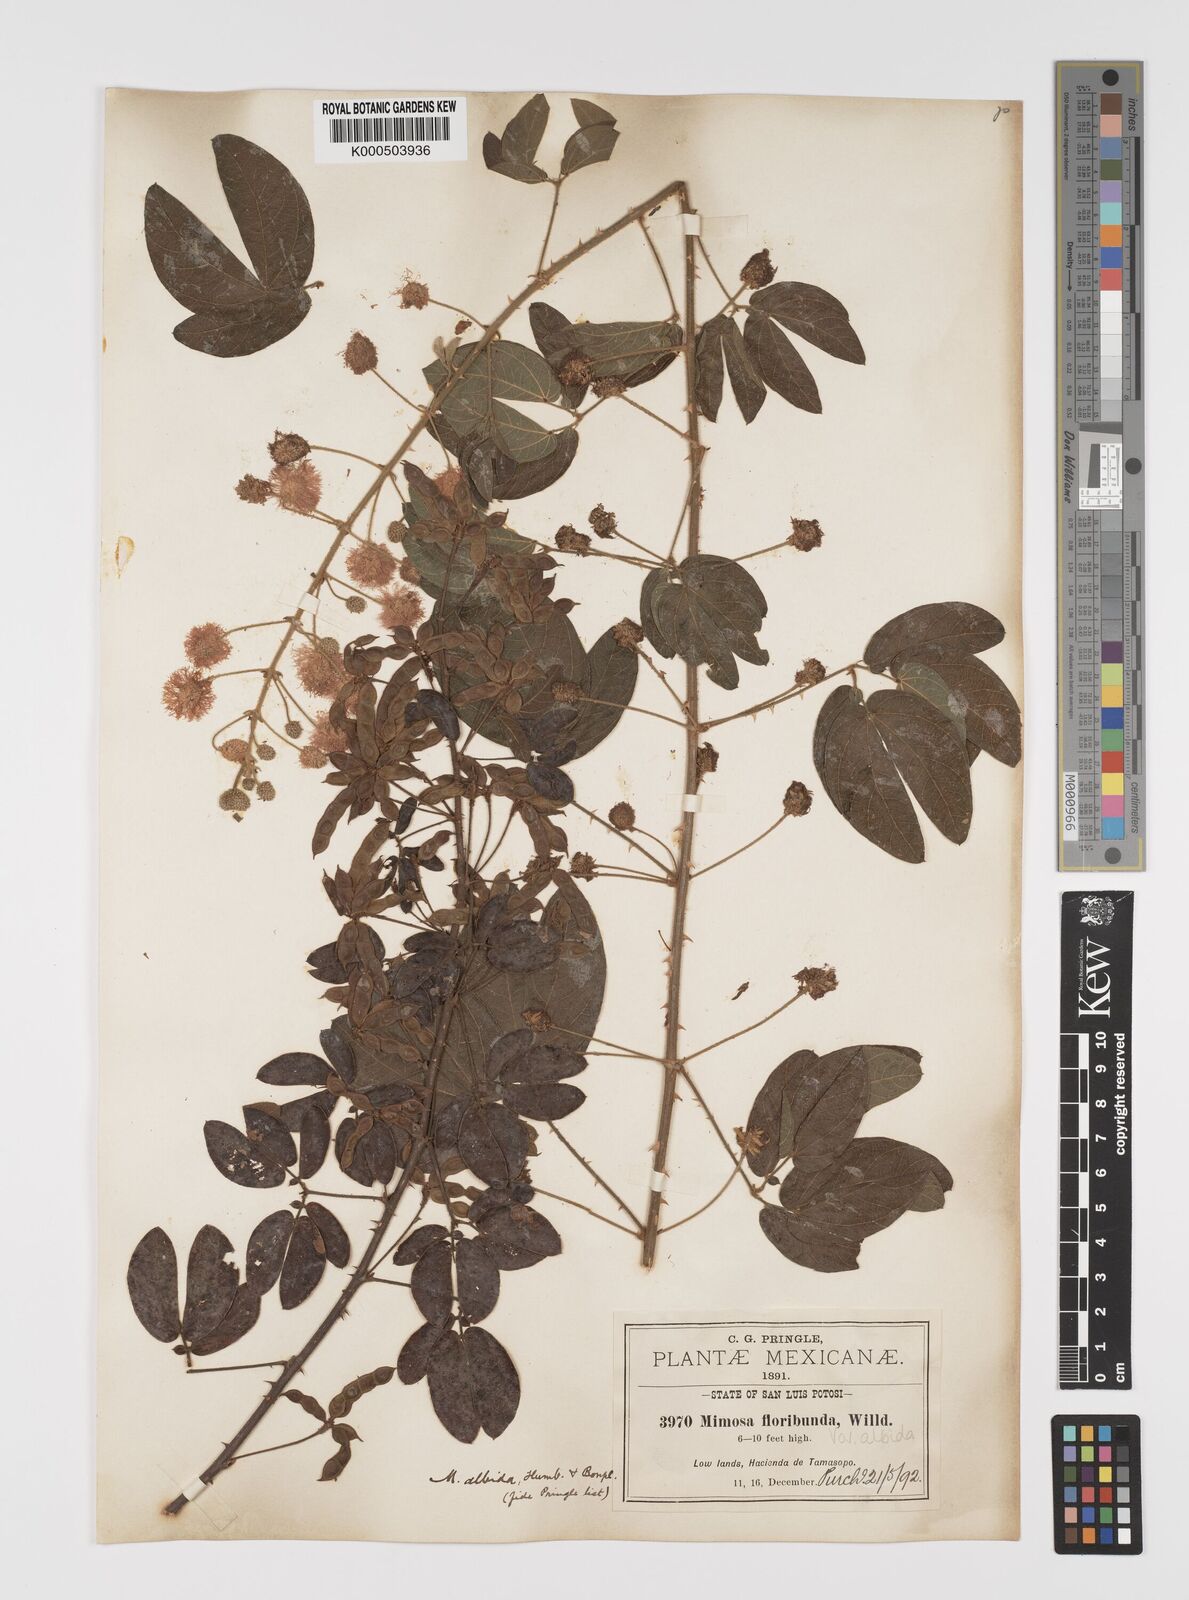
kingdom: Plantae
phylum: Tracheophyta
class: Magnoliopsida
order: Fabales
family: Fabaceae
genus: Mimosa
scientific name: Mimosa albida
